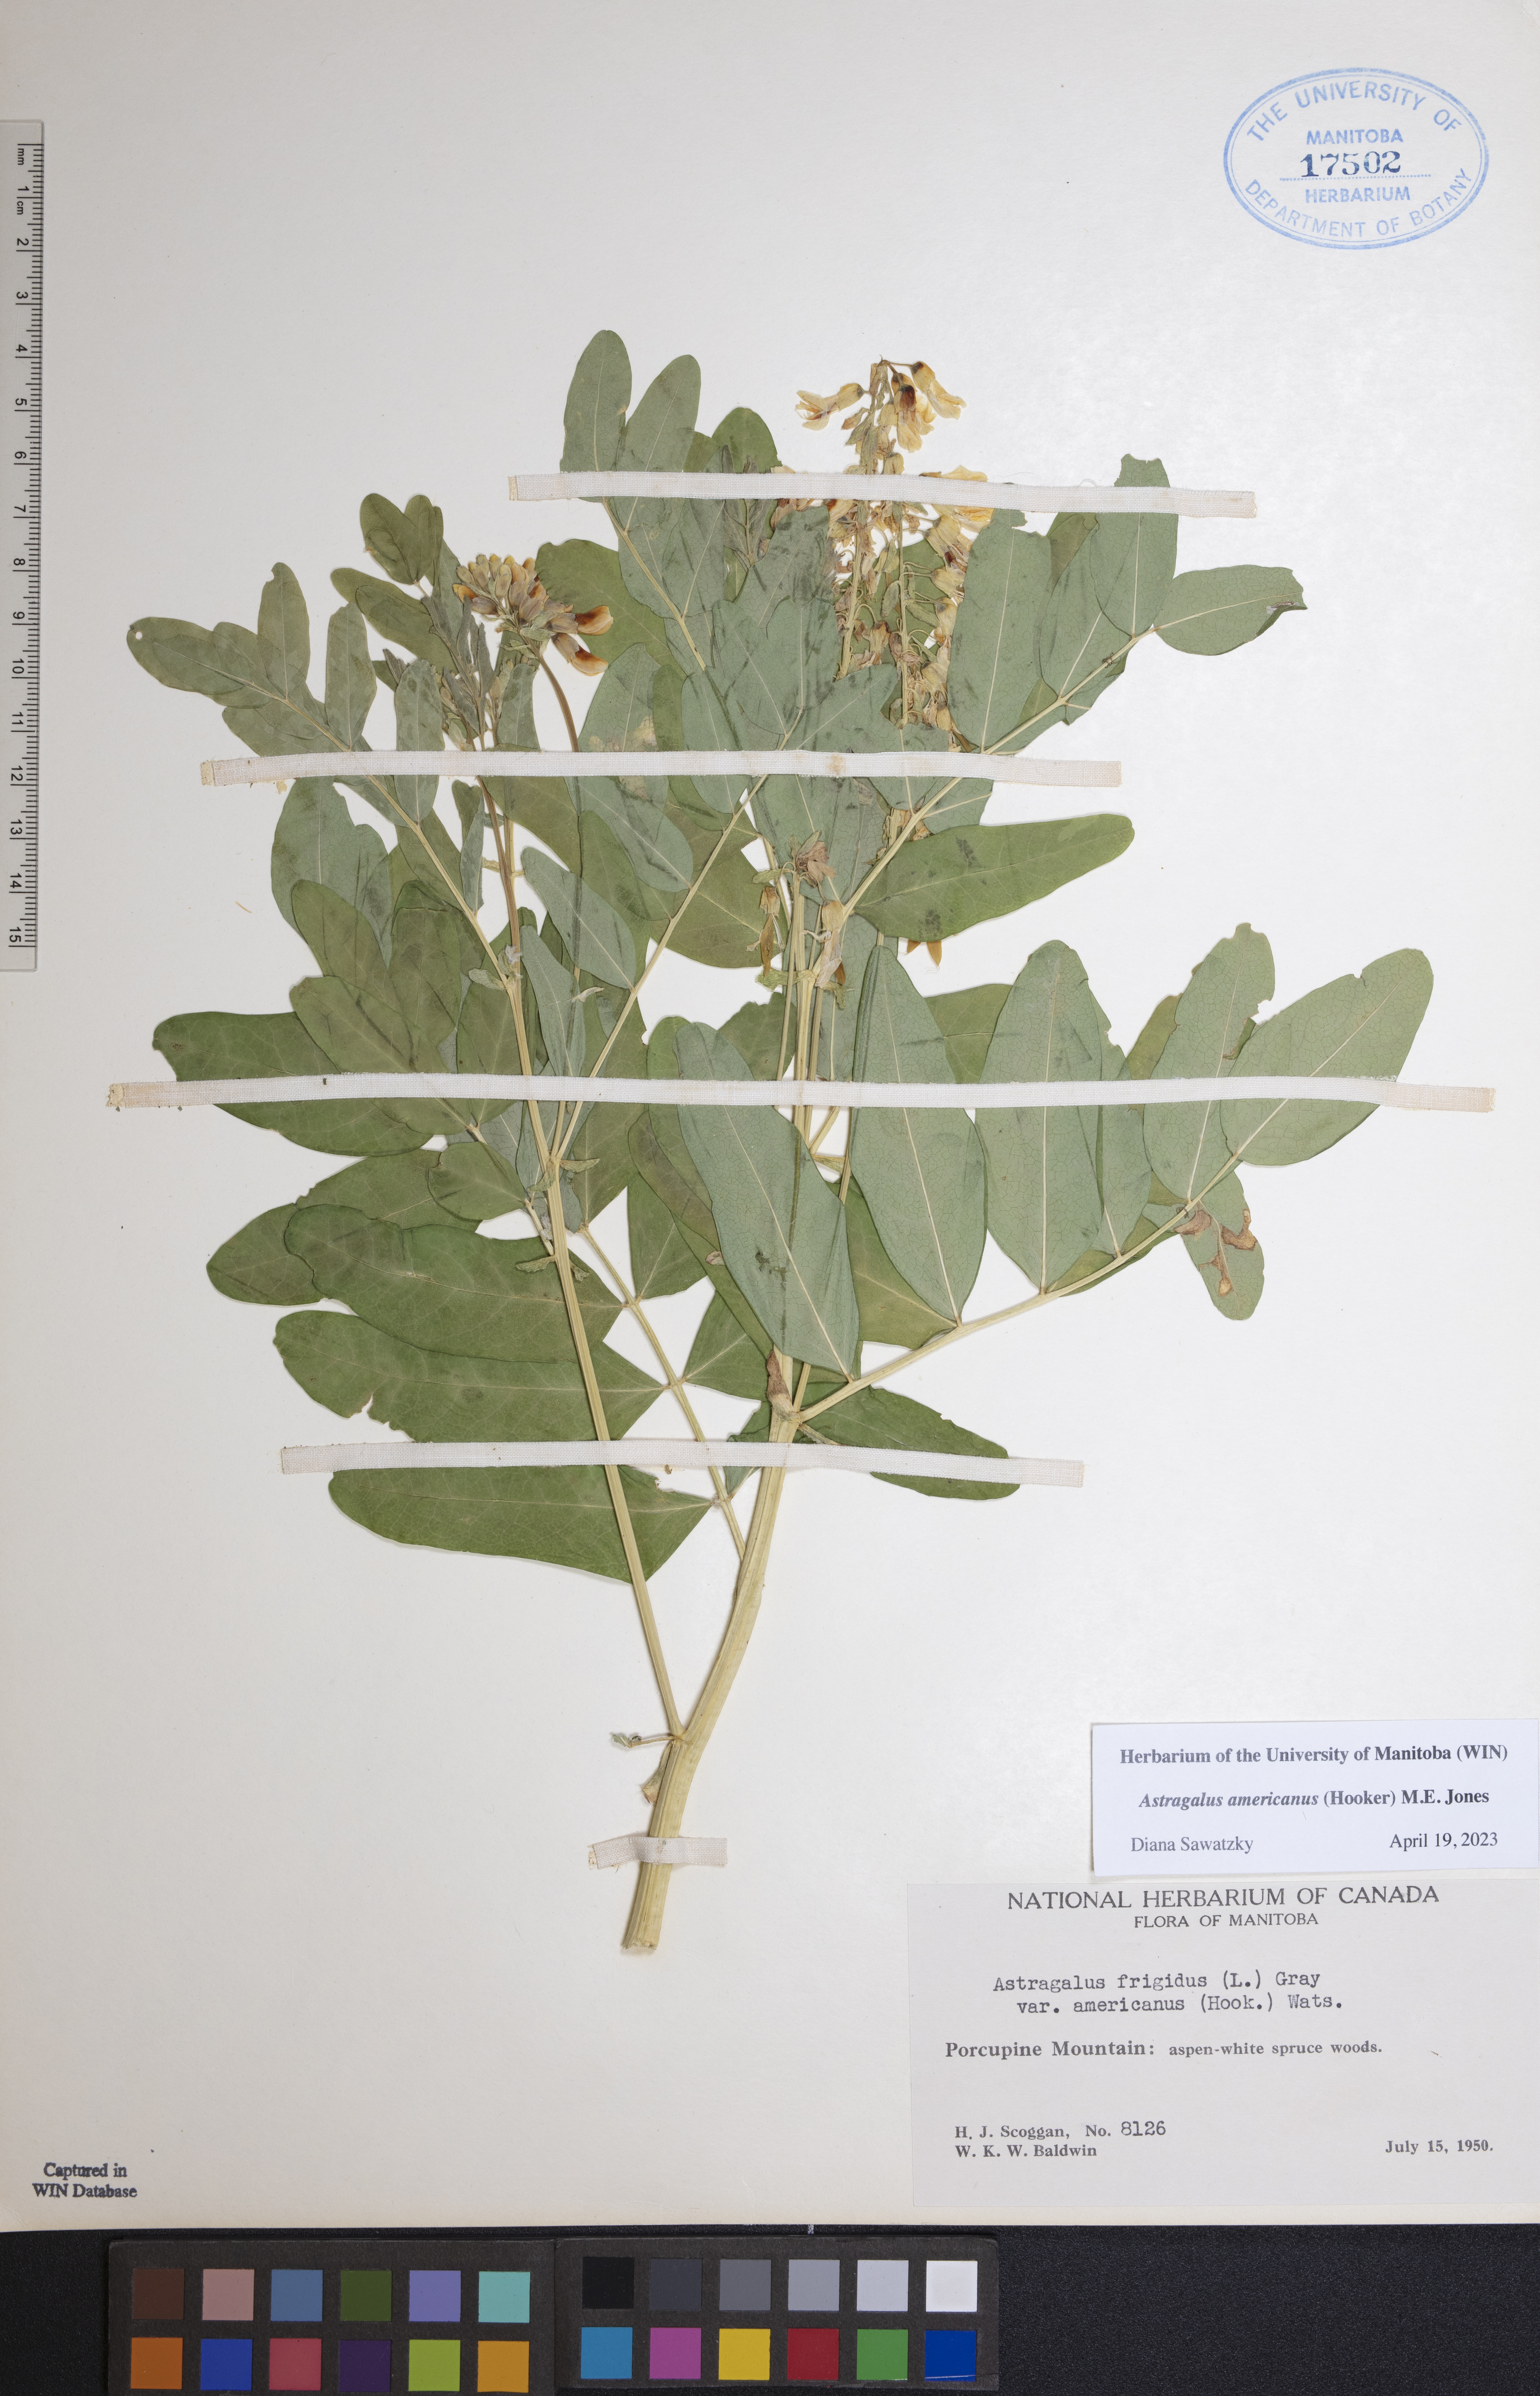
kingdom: Plantae
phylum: Tracheophyta
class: Magnoliopsida
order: Fabales
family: Fabaceae
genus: Astragalus
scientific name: Astragalus americanus
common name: American milk-vetch
